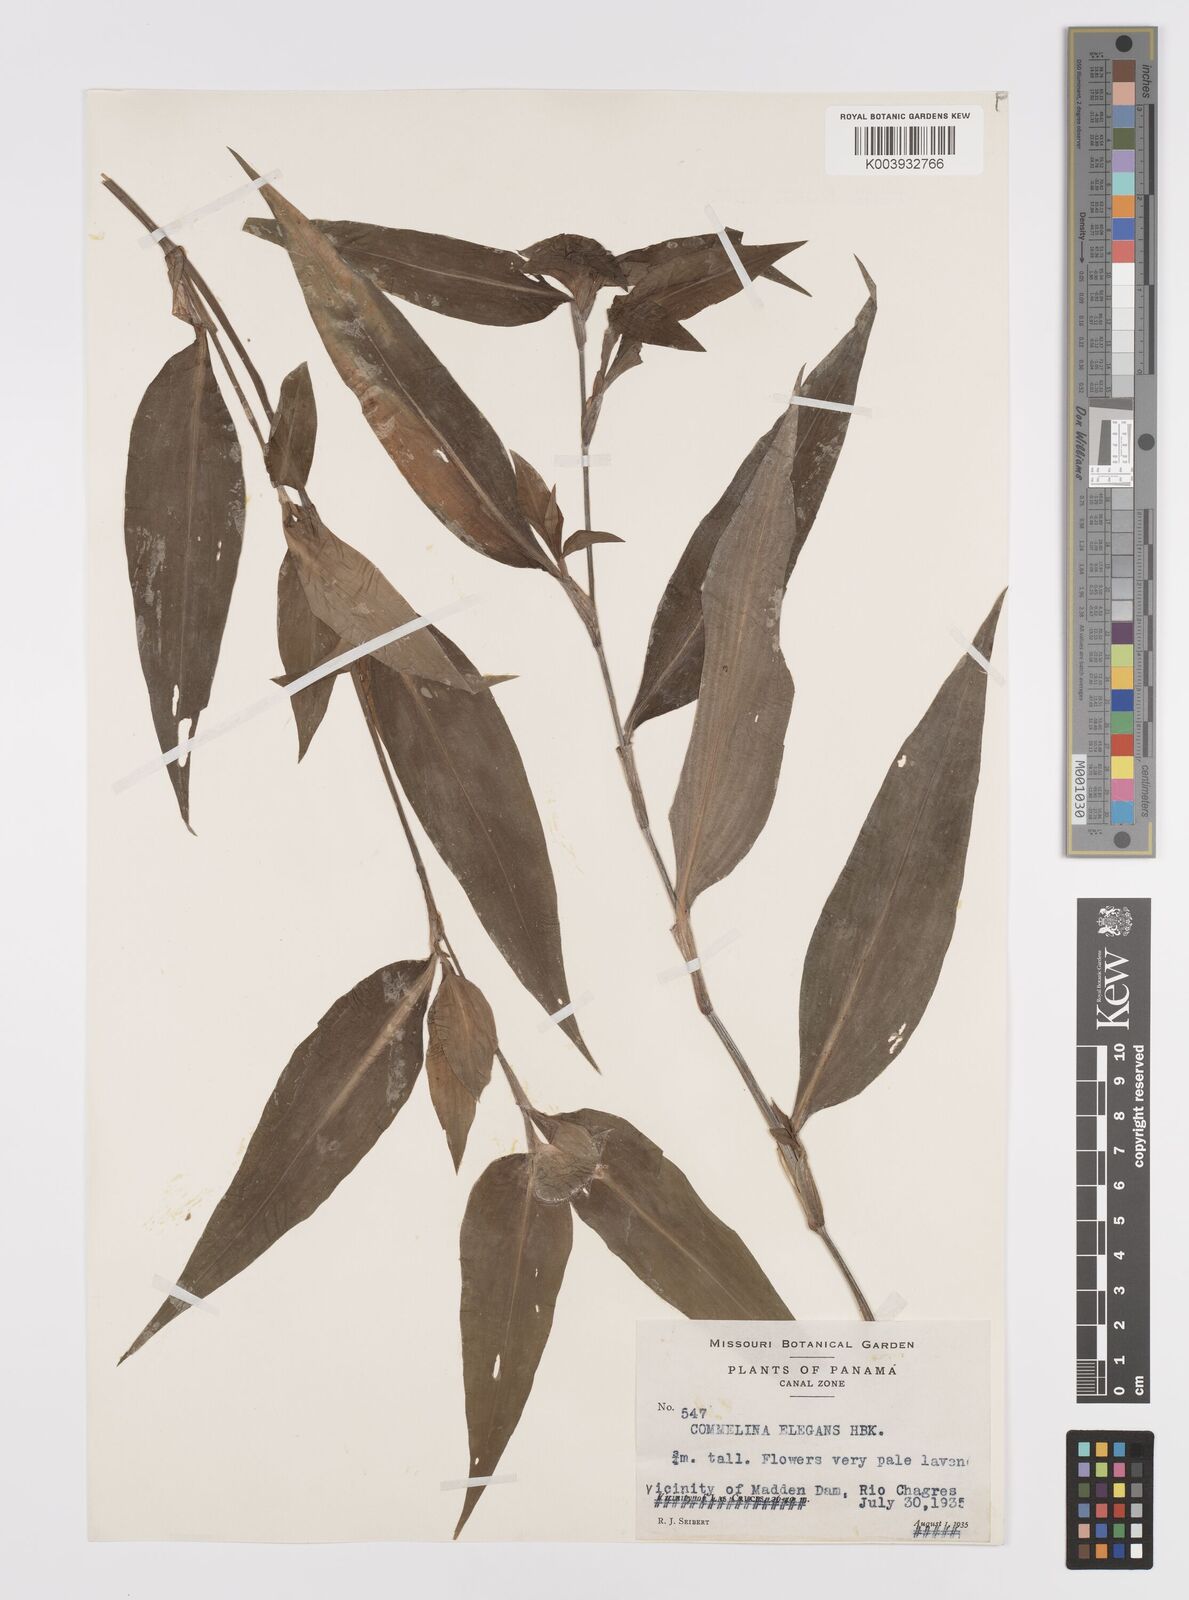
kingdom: Plantae
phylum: Tracheophyta
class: Liliopsida
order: Commelinales
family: Commelinaceae
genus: Commelina
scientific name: Commelina virginica
